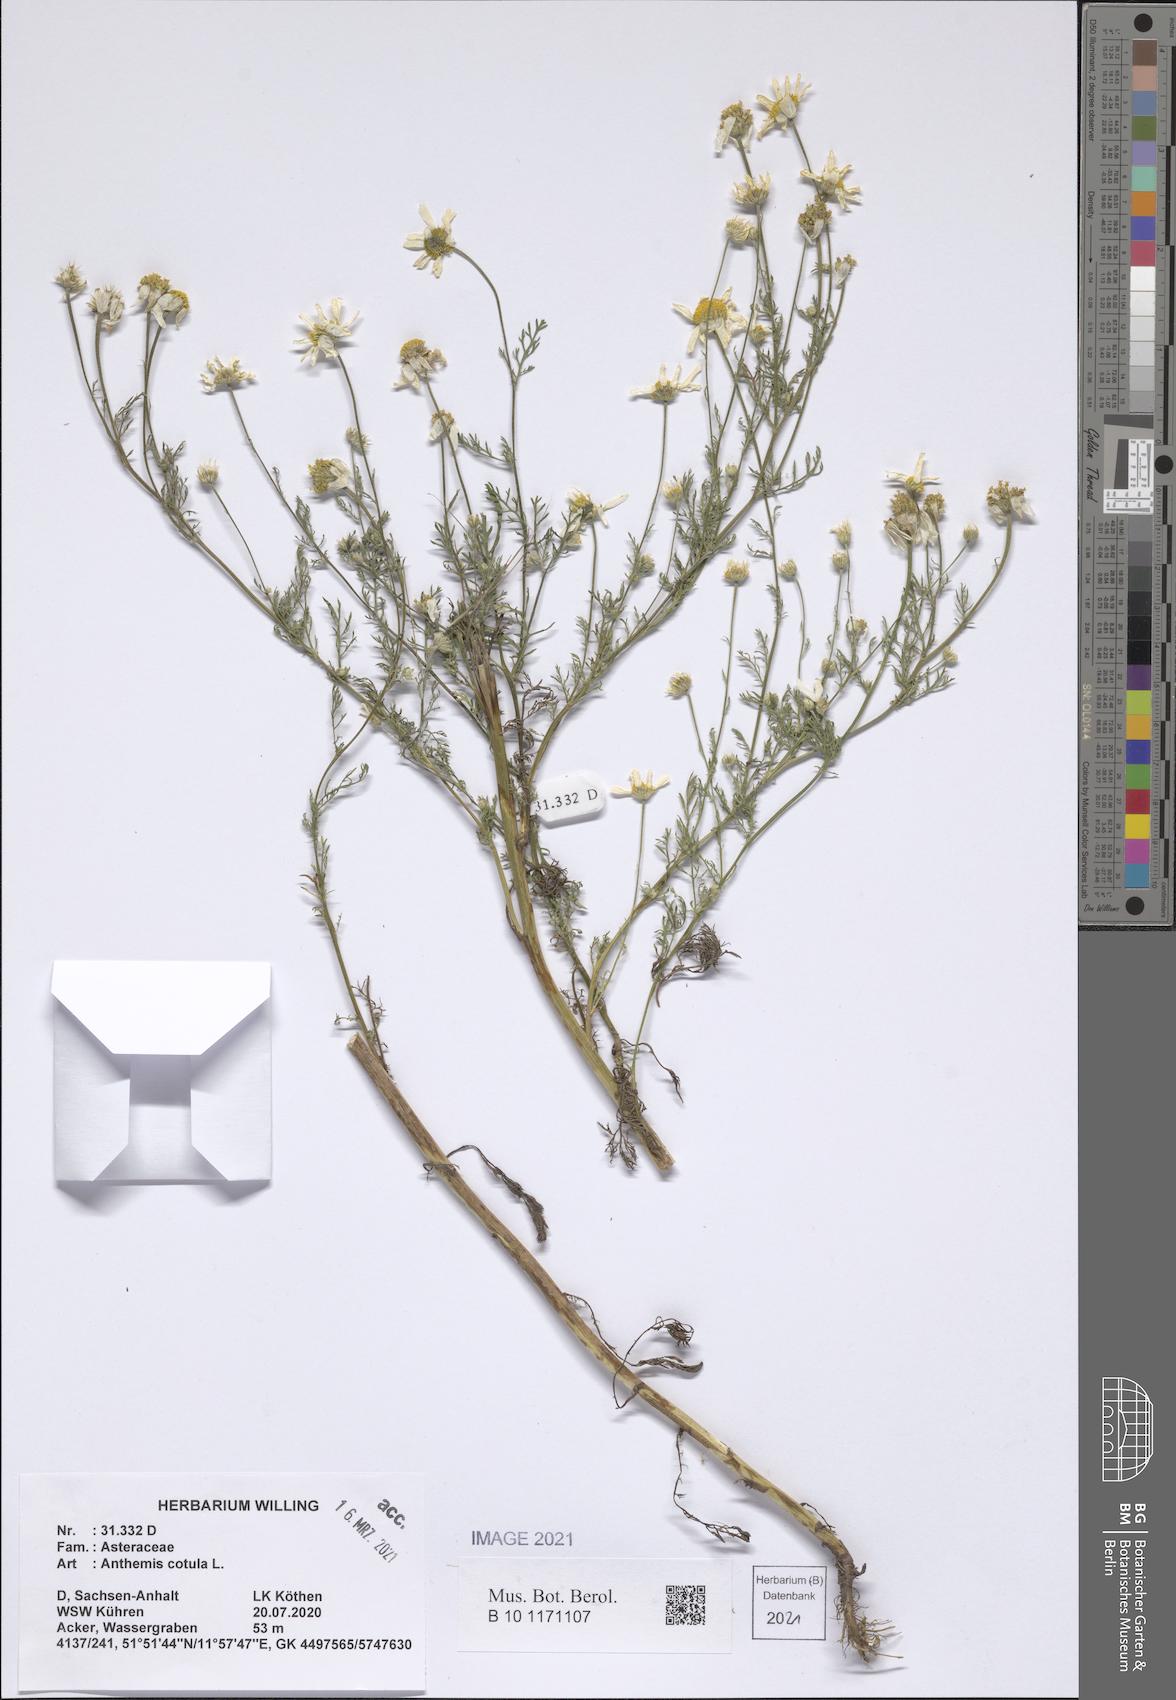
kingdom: Plantae
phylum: Tracheophyta
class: Magnoliopsida
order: Asterales
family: Asteraceae
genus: Anthemis
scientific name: Anthemis cotula
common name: Stinking chamomile
